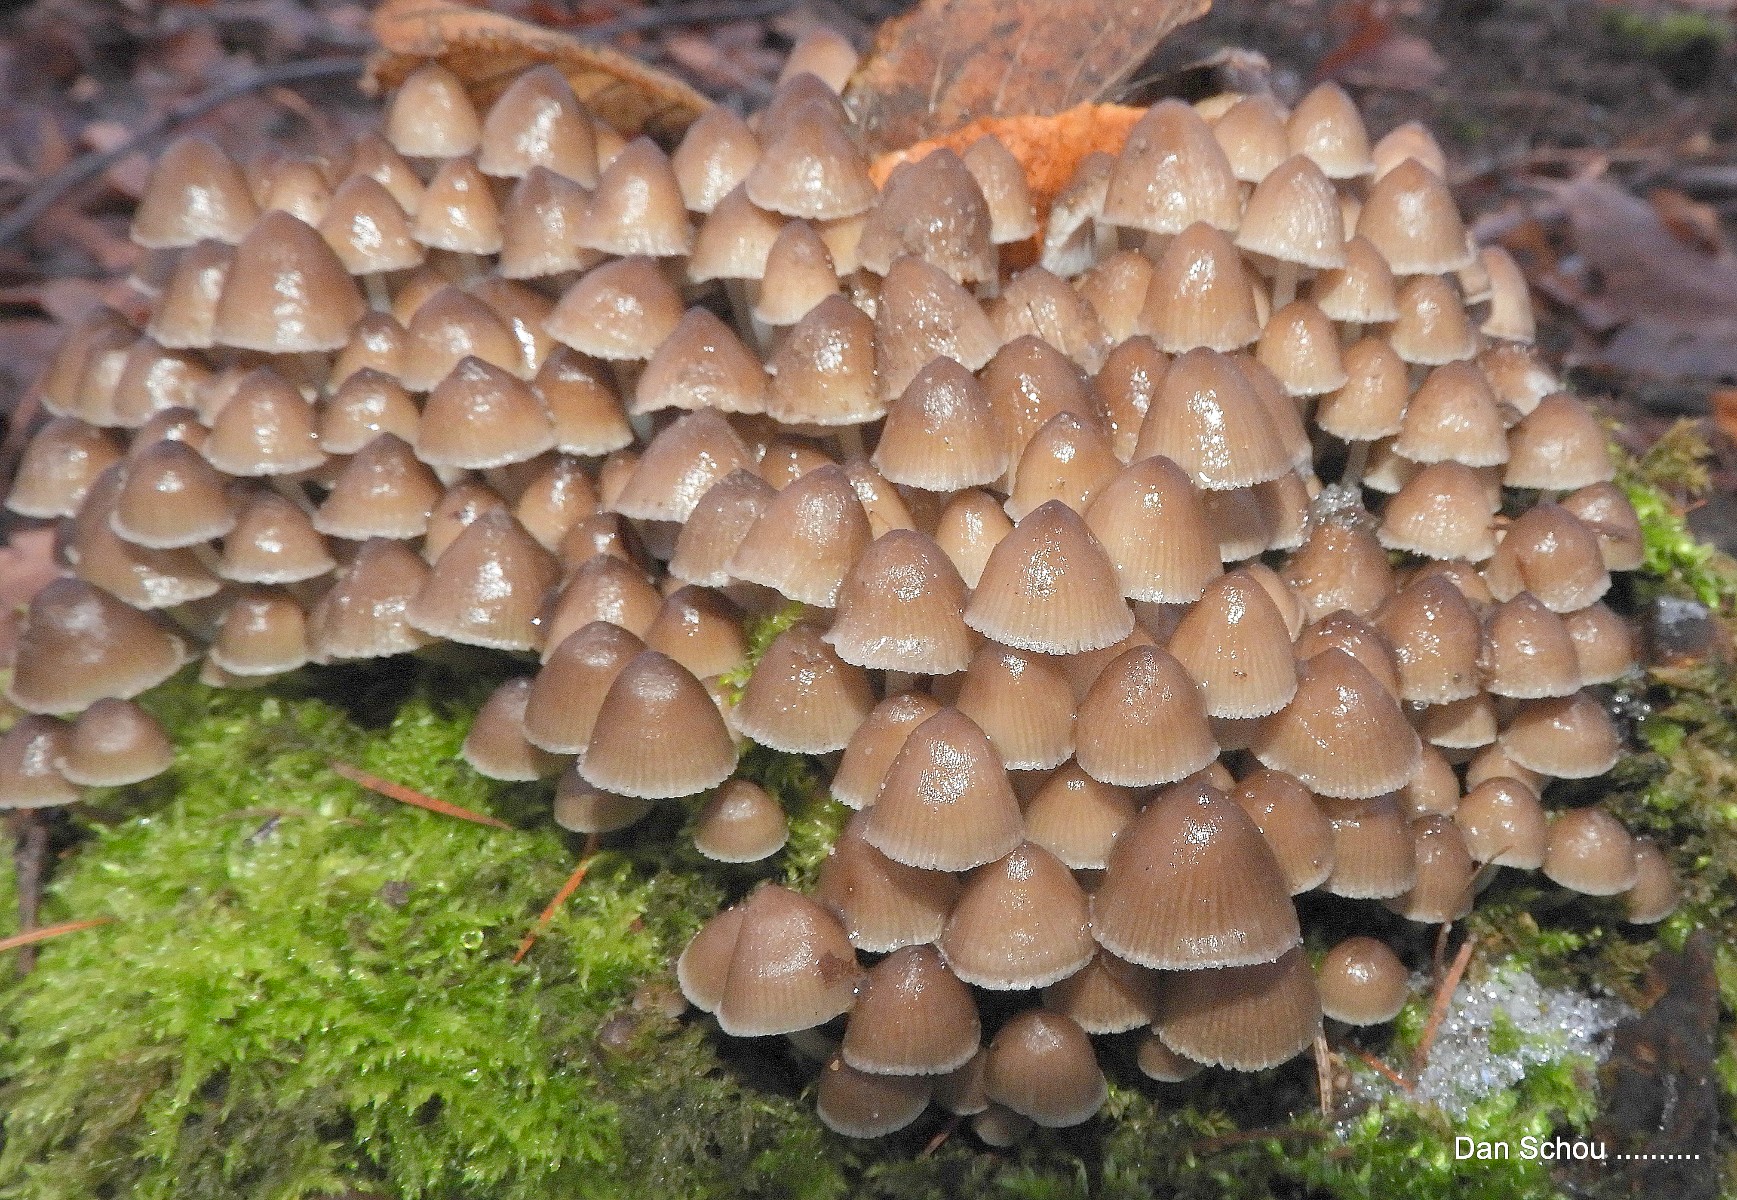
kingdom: Fungi
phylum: Basidiomycota
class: Agaricomycetes
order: Agaricales
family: Mycenaceae
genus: Mycena
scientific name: Mycena tintinnabulum
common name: vinter-huesvamp
